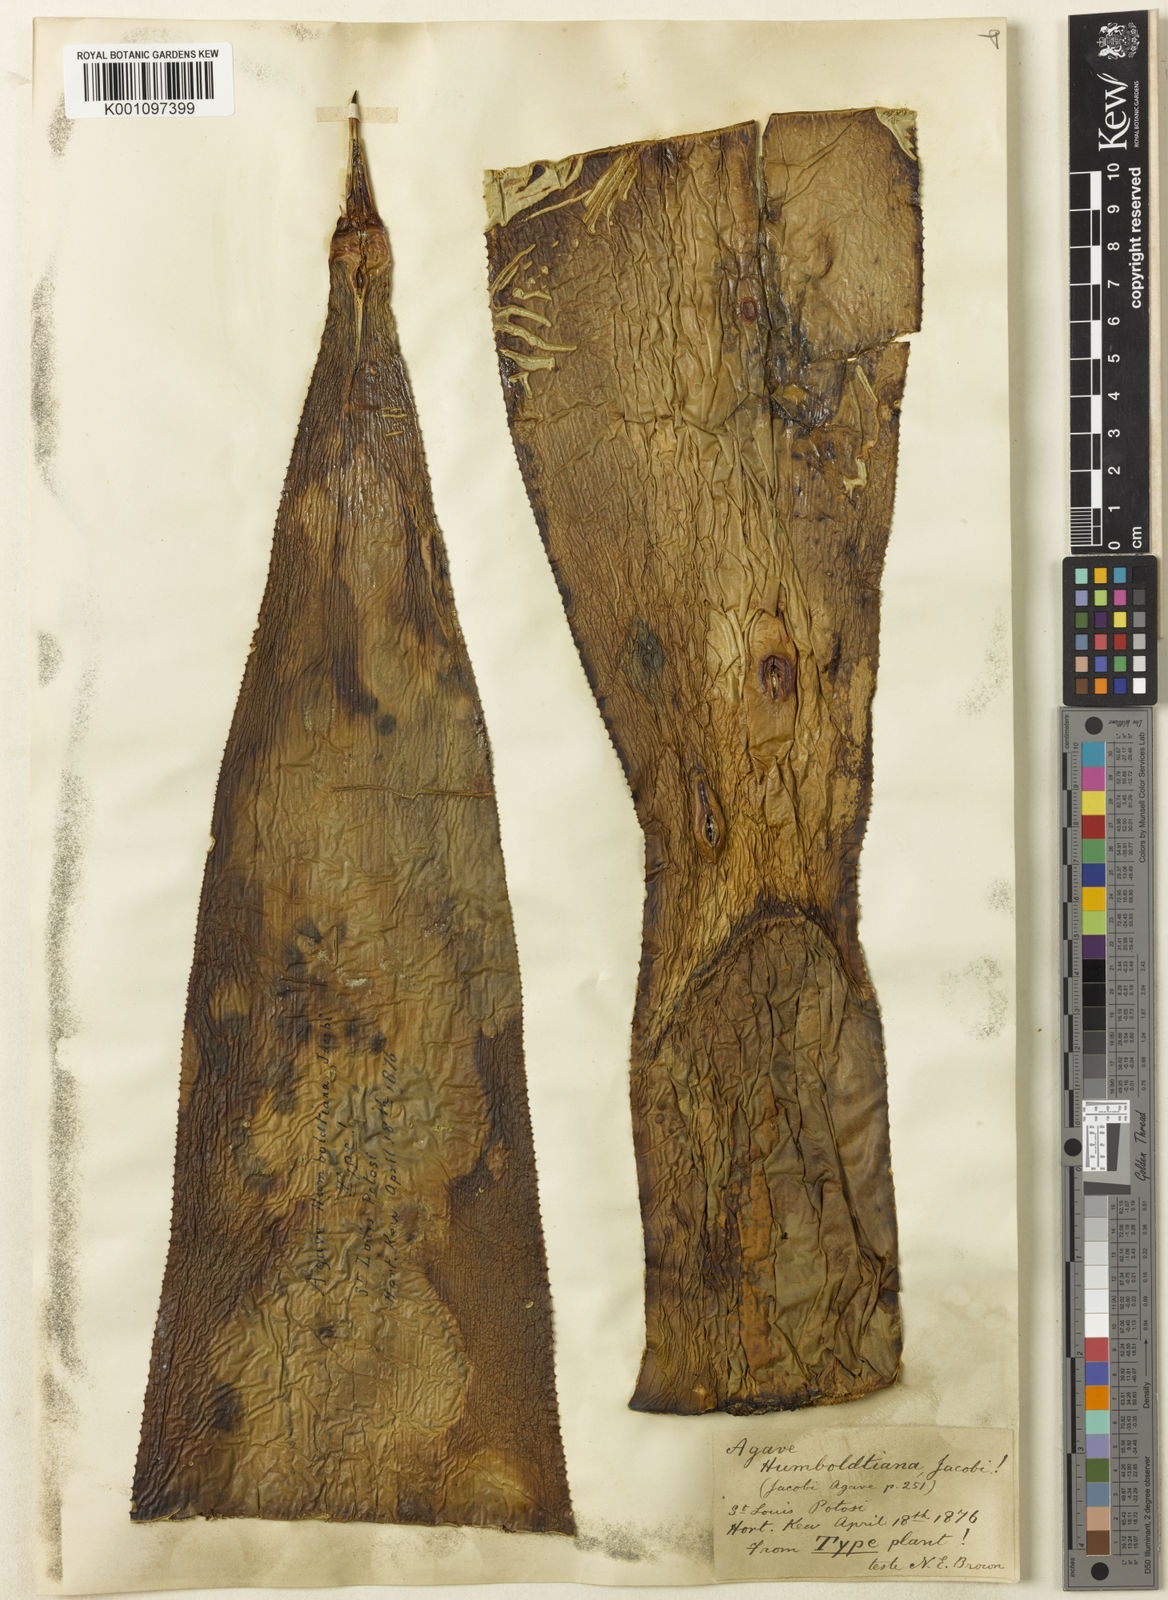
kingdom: Plantae
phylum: Tracheophyta
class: Liliopsida
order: Asparagales
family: Asparagaceae
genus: Agave
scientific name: Agave humboldtiana
